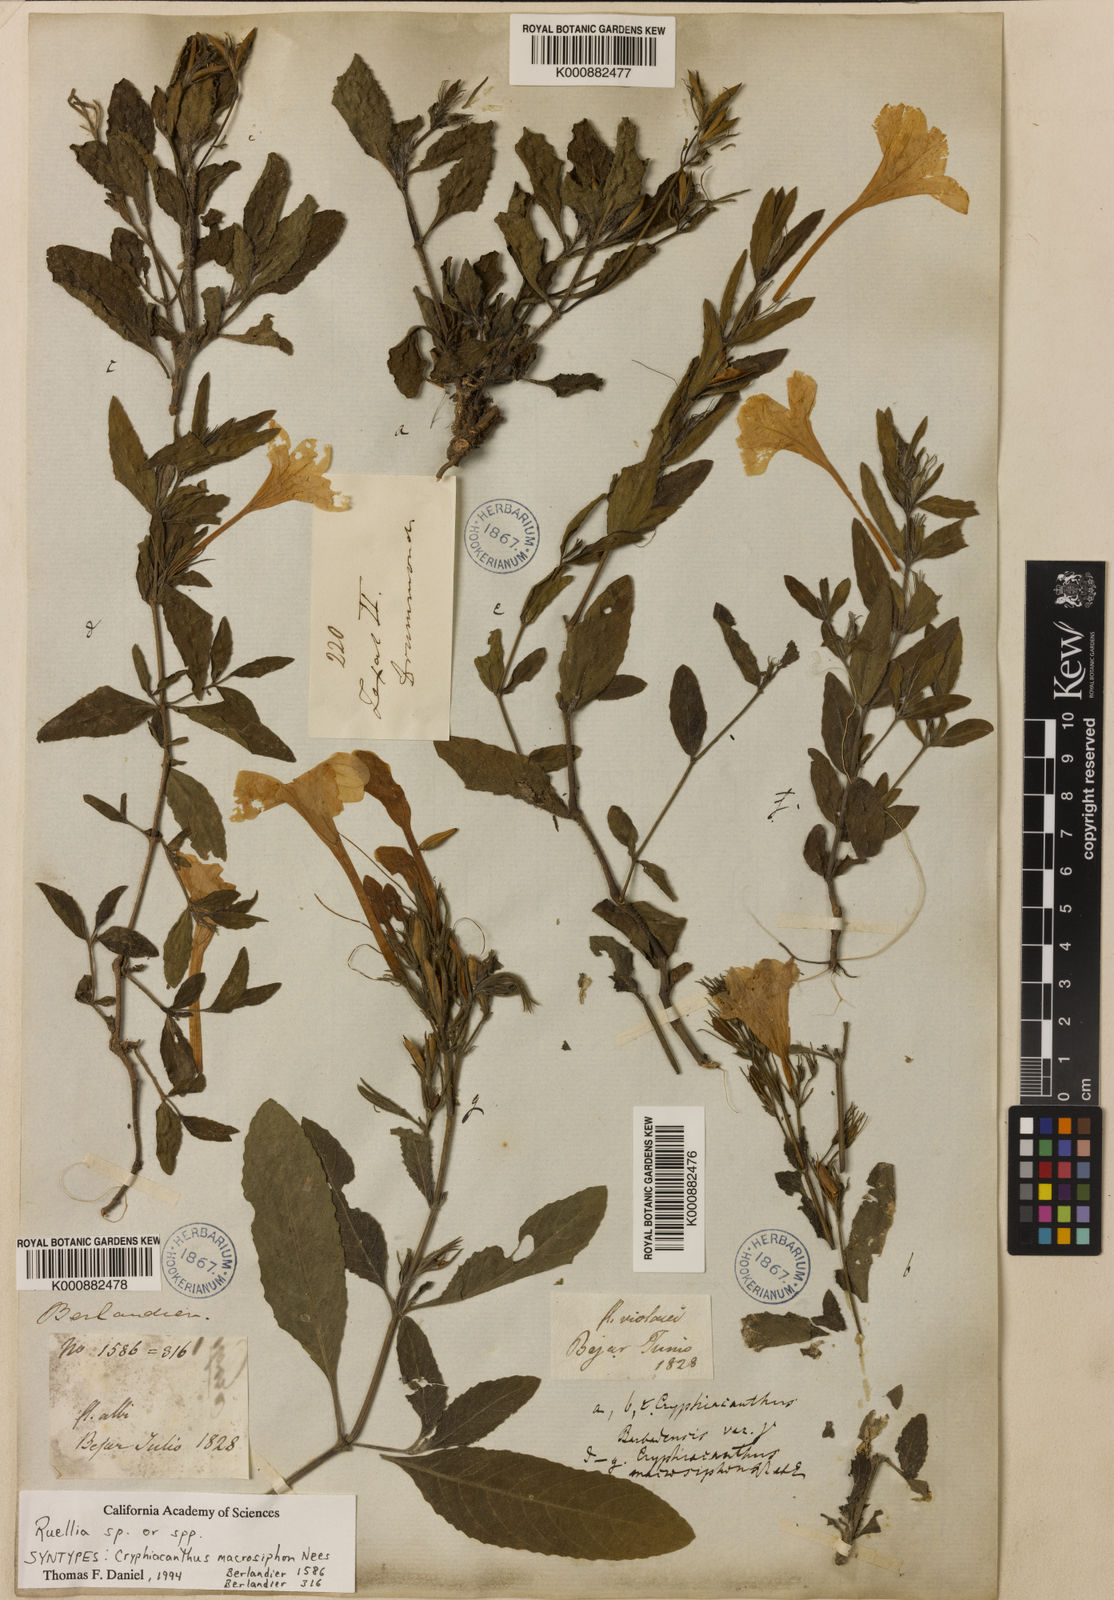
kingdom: Plantae
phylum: Tracheophyta
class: Magnoliopsida
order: Lamiales
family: Acanthaceae
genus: Ruellia
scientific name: Ruellia ciliatiflora
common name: Hairyflower wild petunia
